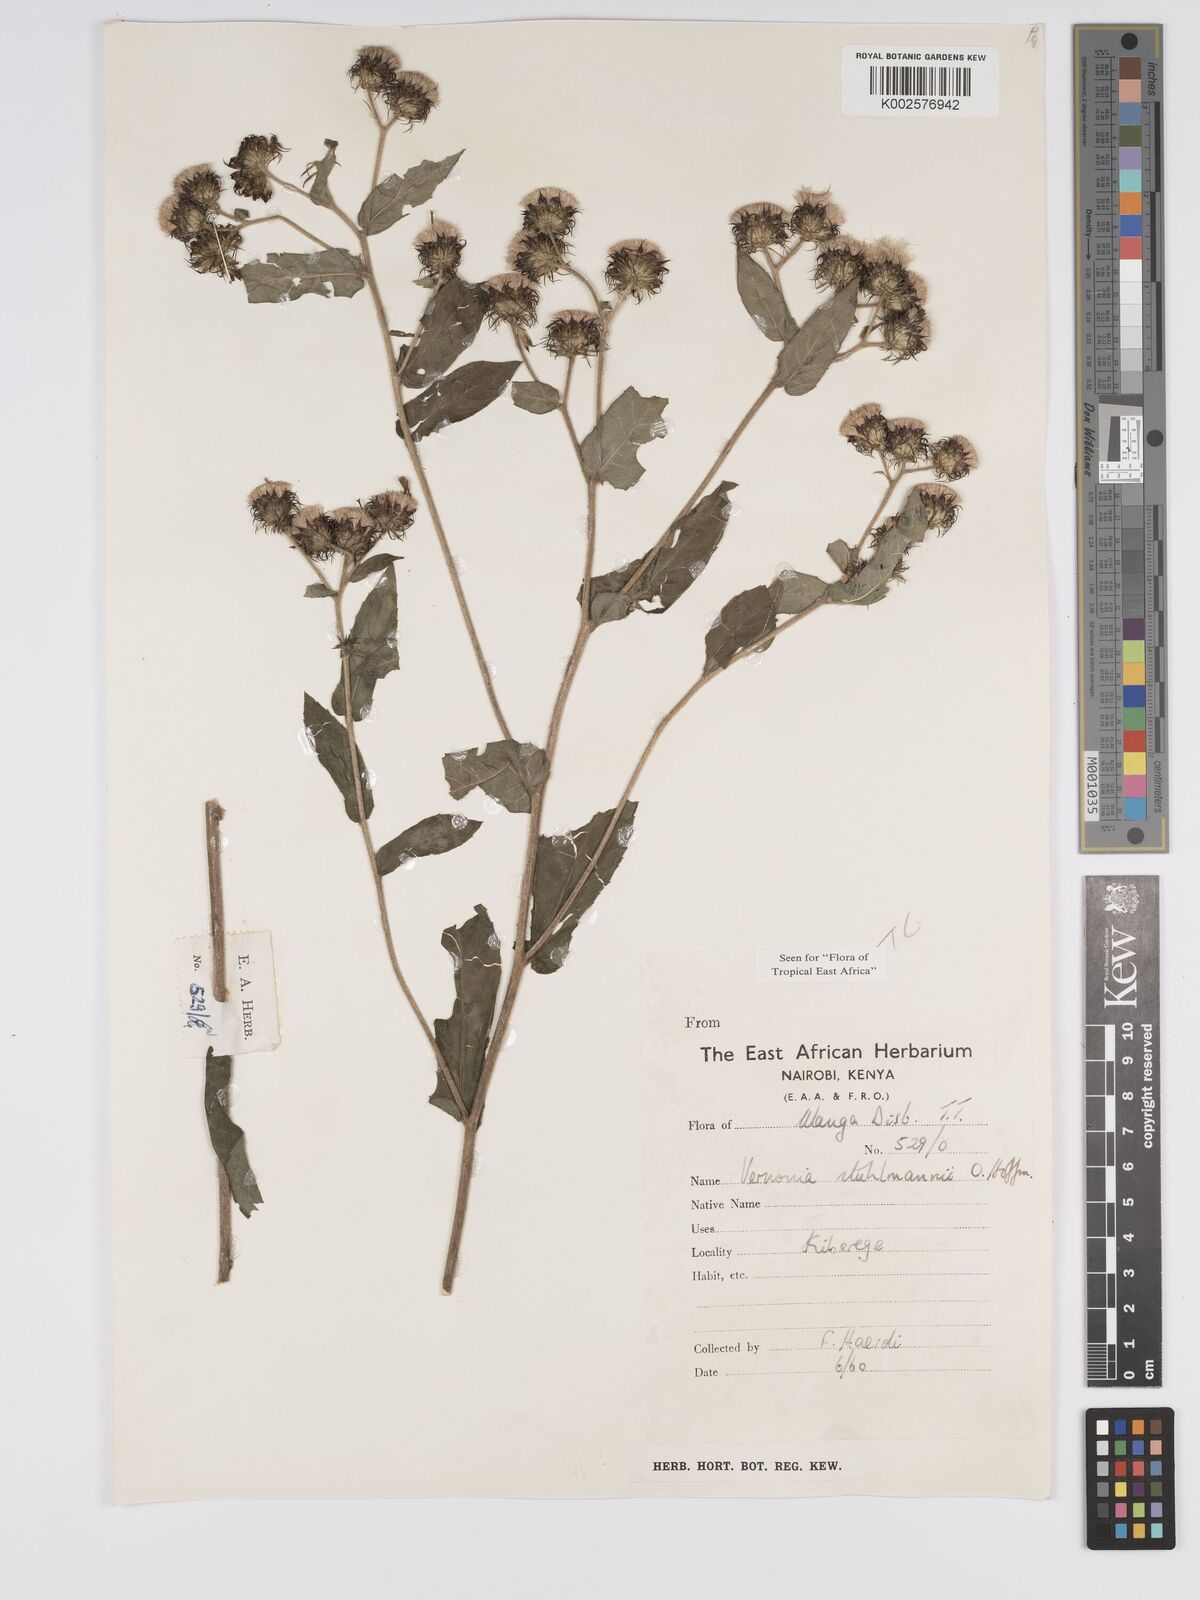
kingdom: Plantae
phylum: Tracheophyta
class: Magnoliopsida
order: Asterales
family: Asteraceae
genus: Vernonia
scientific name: Vernonia stuhlmannii
